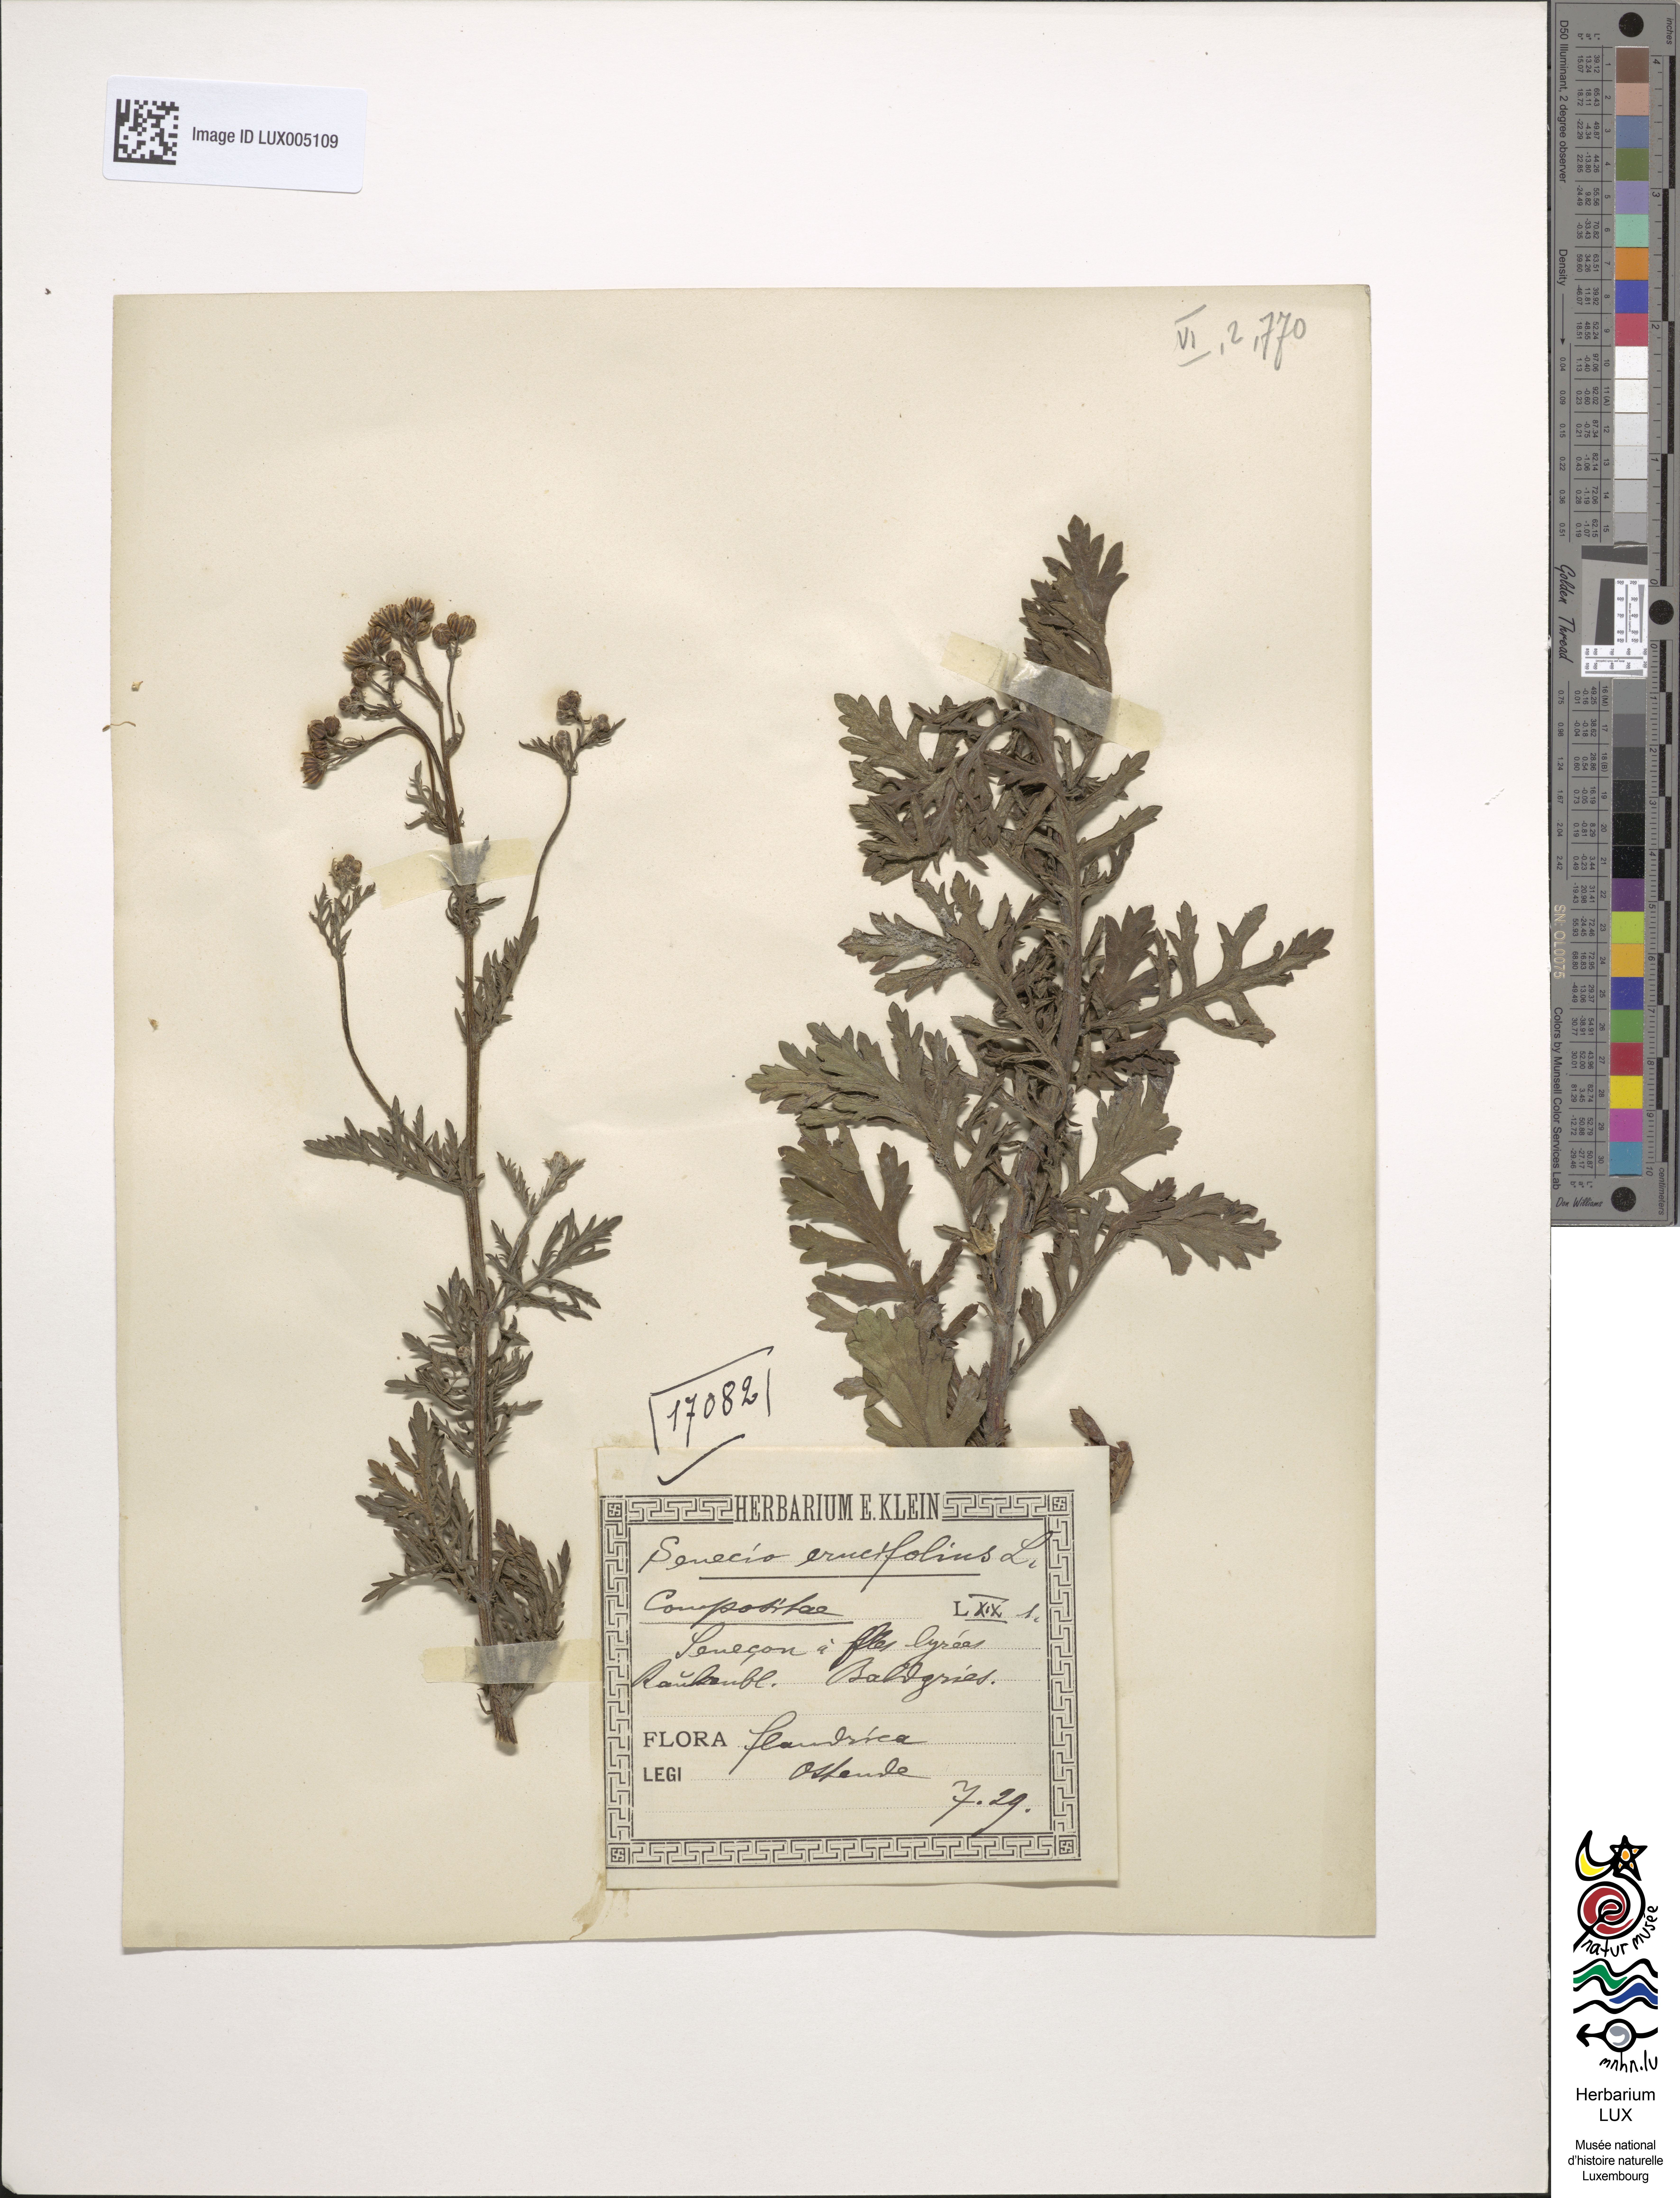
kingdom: Plantae
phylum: Tracheophyta
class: Magnoliopsida
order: Asterales
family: Asteraceae
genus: Jacobaea
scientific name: Jacobaea erucifolia
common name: Hoary ragwort
